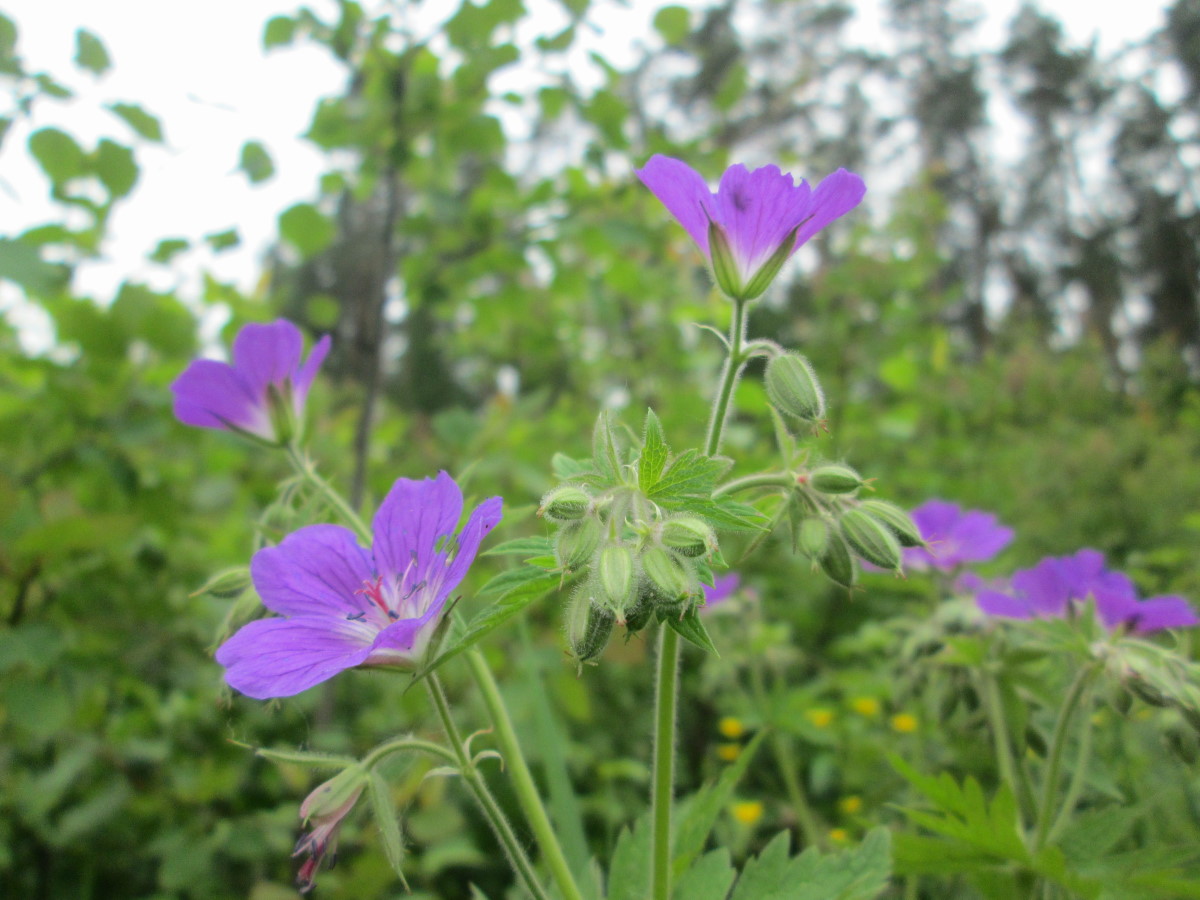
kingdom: Plantae
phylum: Tracheophyta
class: Magnoliopsida
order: Geraniales
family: Geraniaceae
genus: Geranium
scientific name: Geranium sylvaticum
